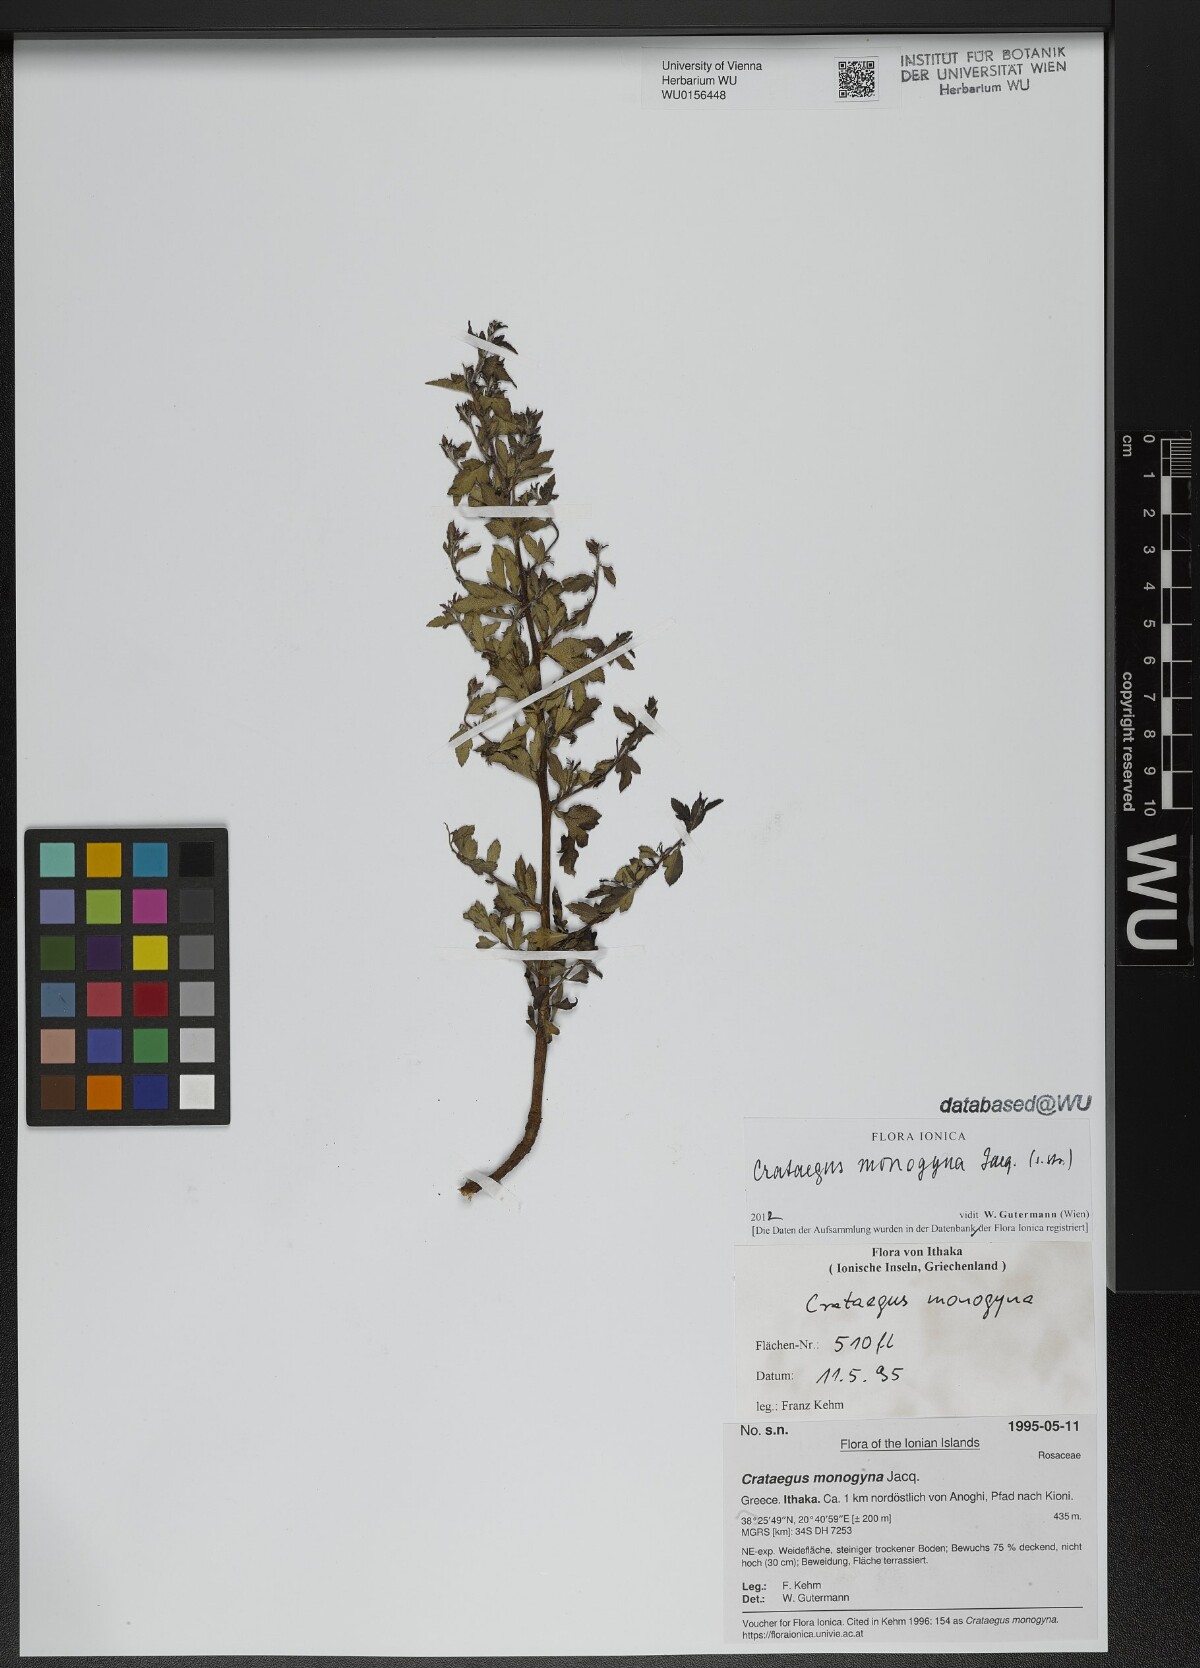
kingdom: Plantae
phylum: Tracheophyta
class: Magnoliopsida
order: Rosales
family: Rosaceae
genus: Crataegus
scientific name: Crataegus monogyna
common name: Hawthorn
